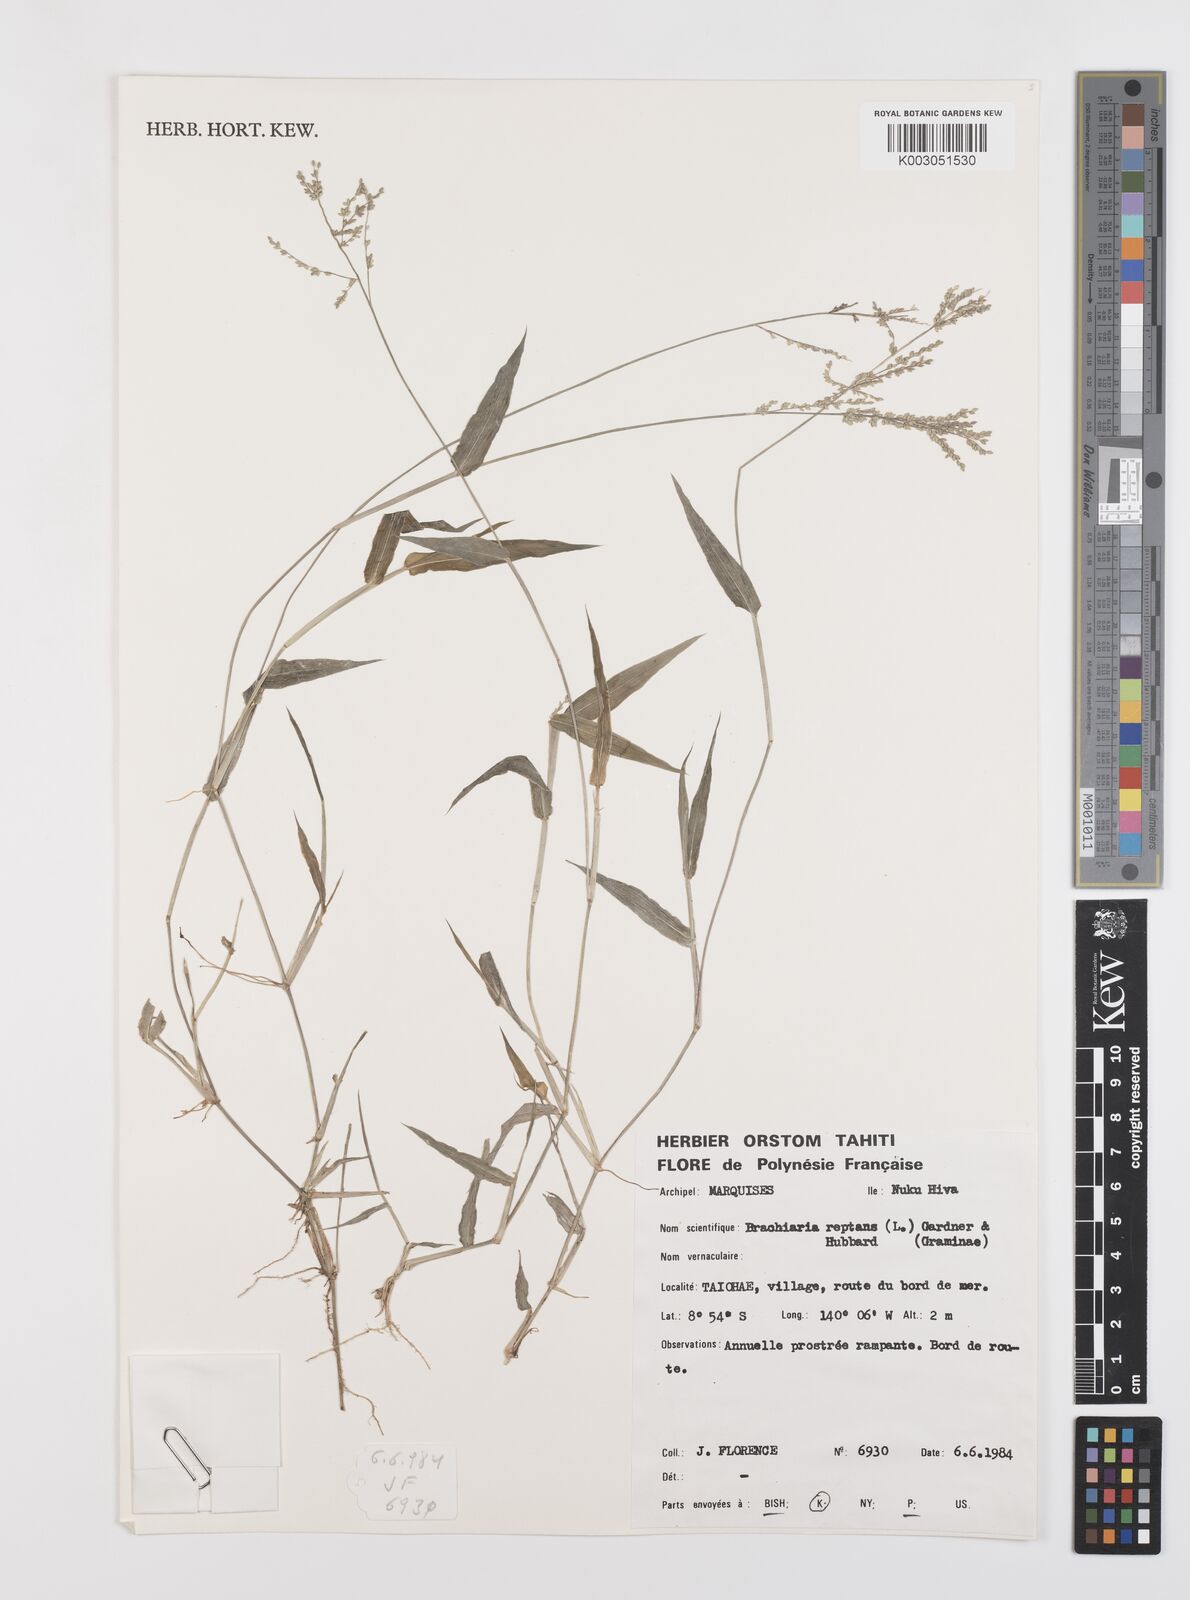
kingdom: Plantae
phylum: Tracheophyta
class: Liliopsida
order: Poales
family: Poaceae
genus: Urochloa
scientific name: Urochloa reptans
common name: Sprawling signalgrass
